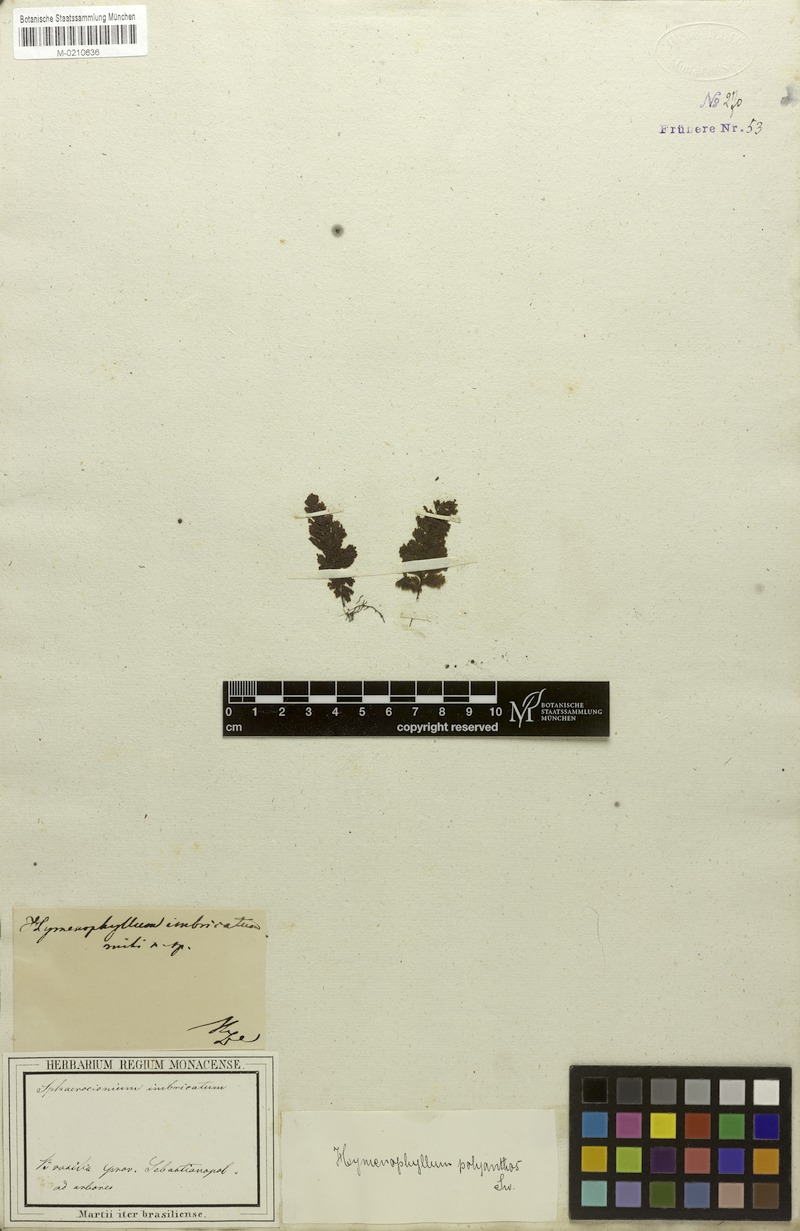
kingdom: Plantae
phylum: Tracheophyta
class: Polypodiopsida
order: Hymenophyllales
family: Hymenophyllaceae
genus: Hymenophyllum
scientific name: Hymenophyllum polyanthos
